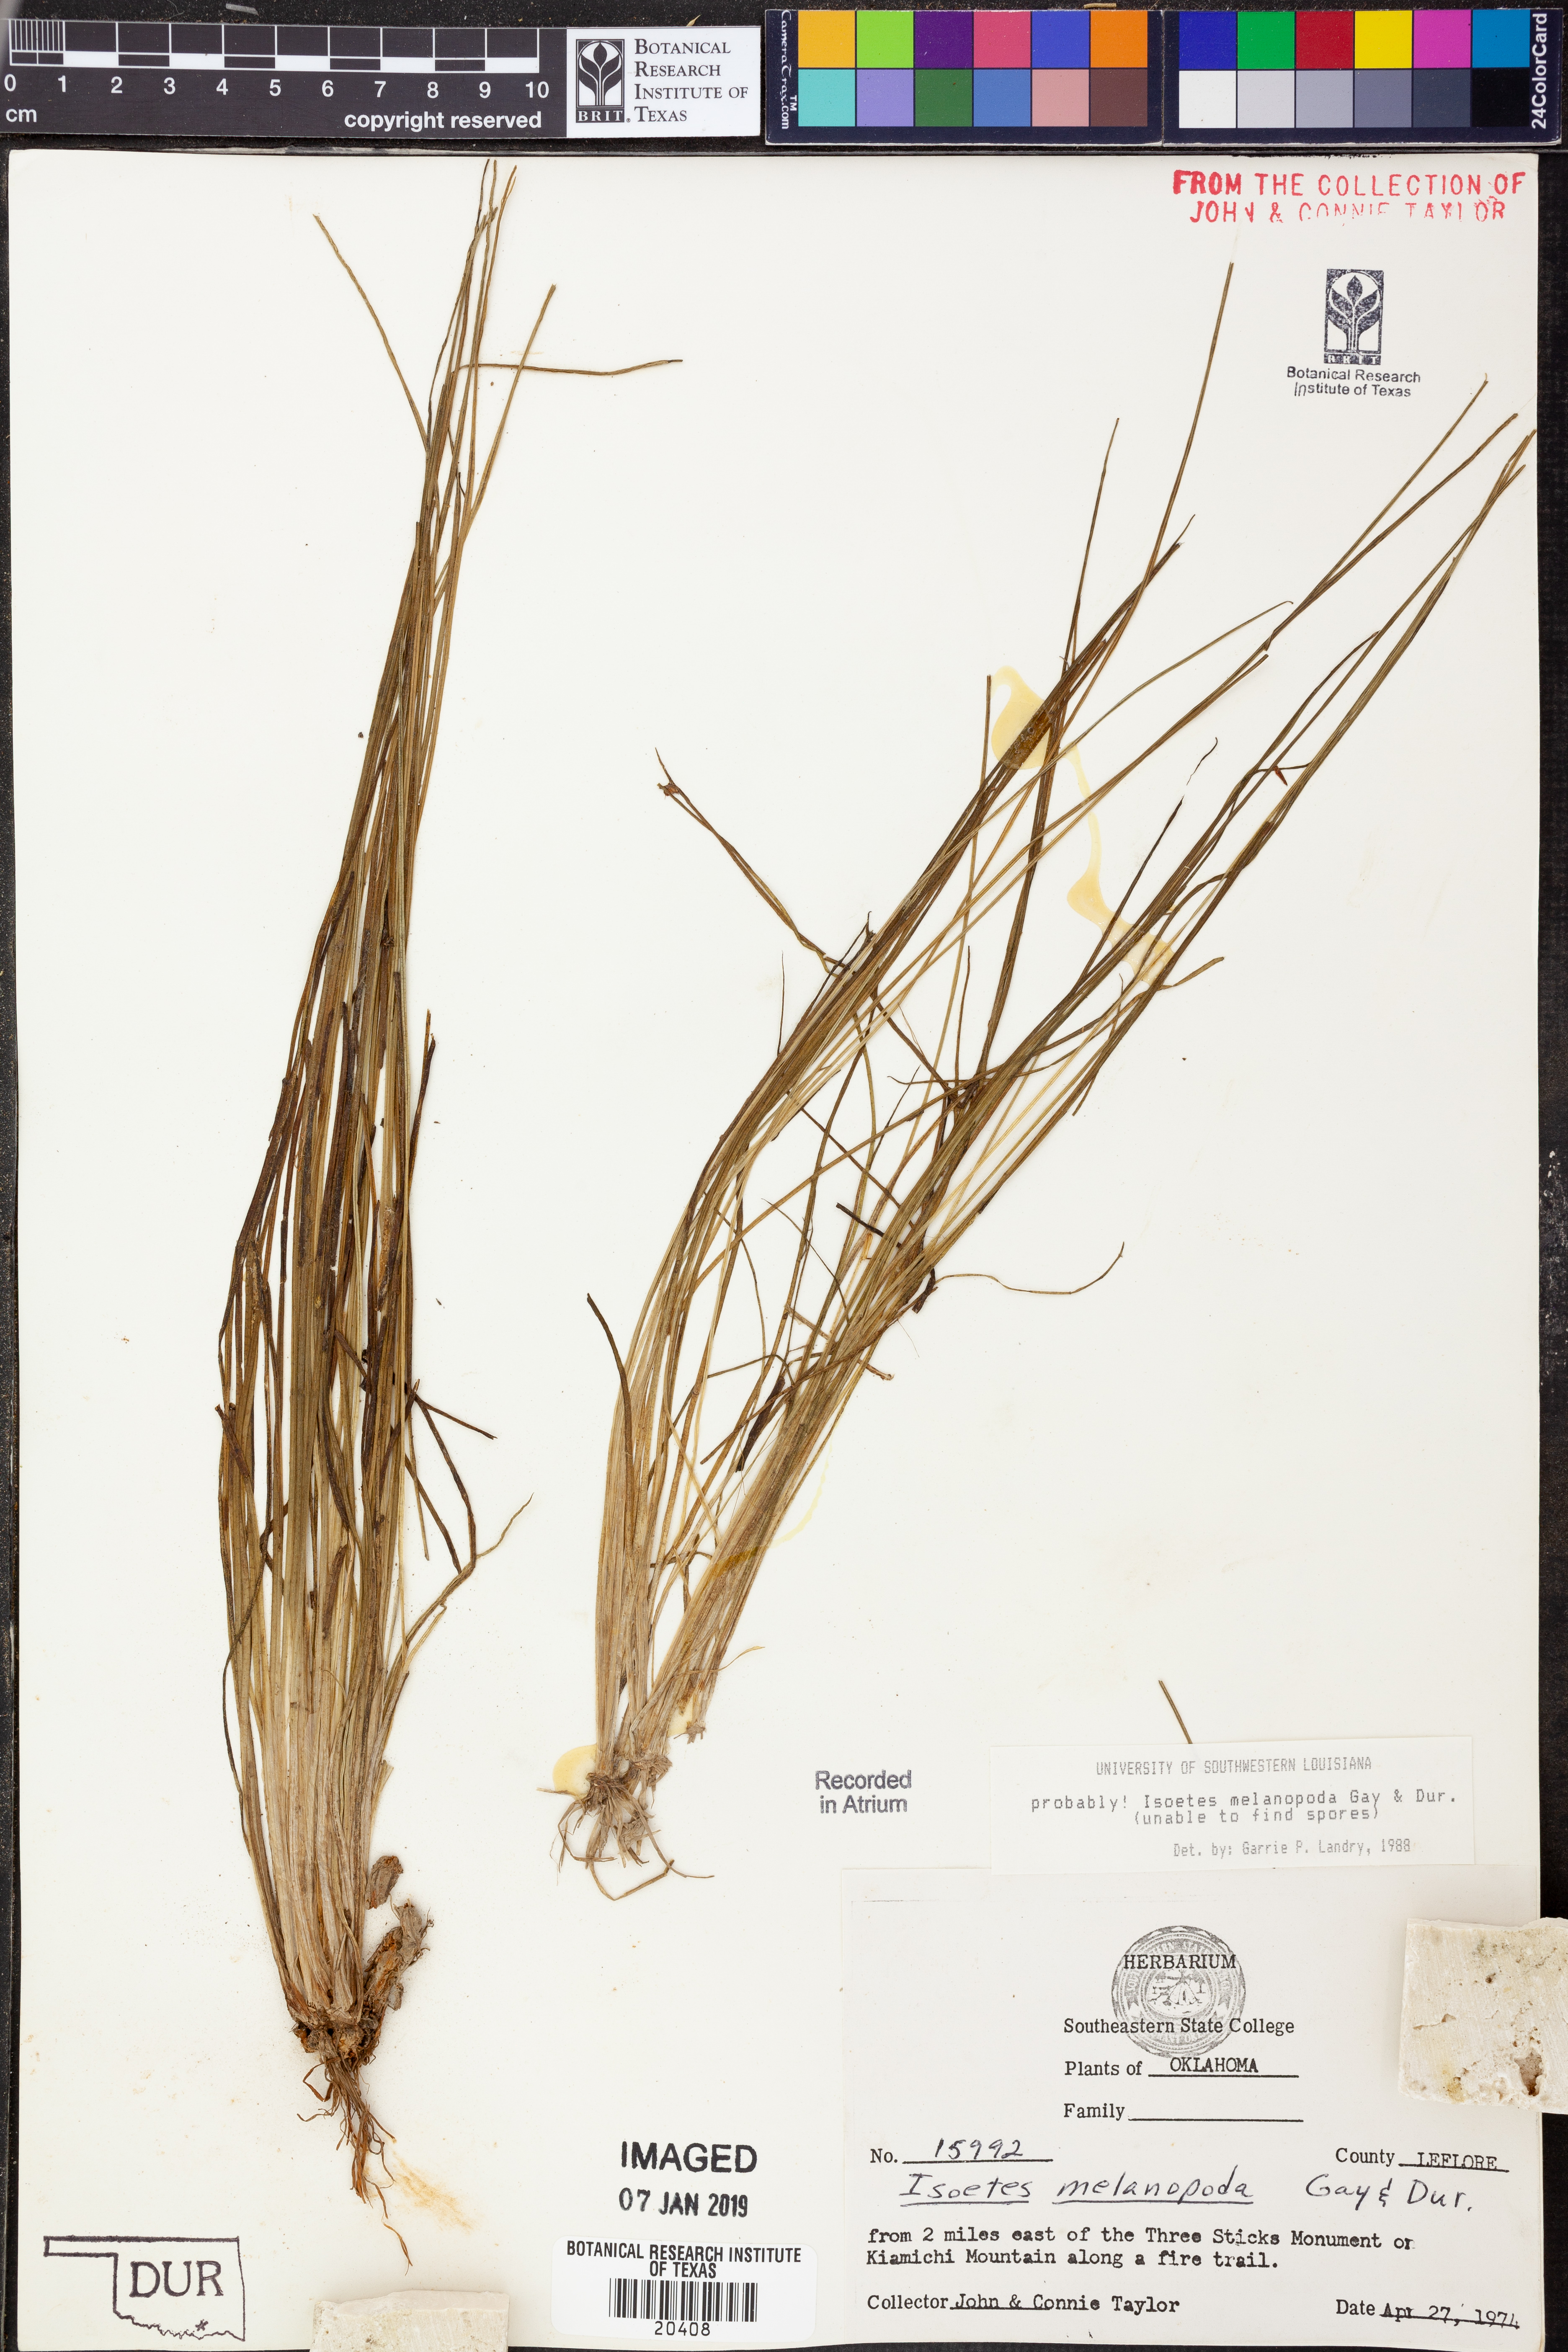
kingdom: Plantae
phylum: Tracheophyta
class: Lycopodiopsida
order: Isoetales
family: Isoetaceae
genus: Isoetes
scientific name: Isoetes melanopoda
